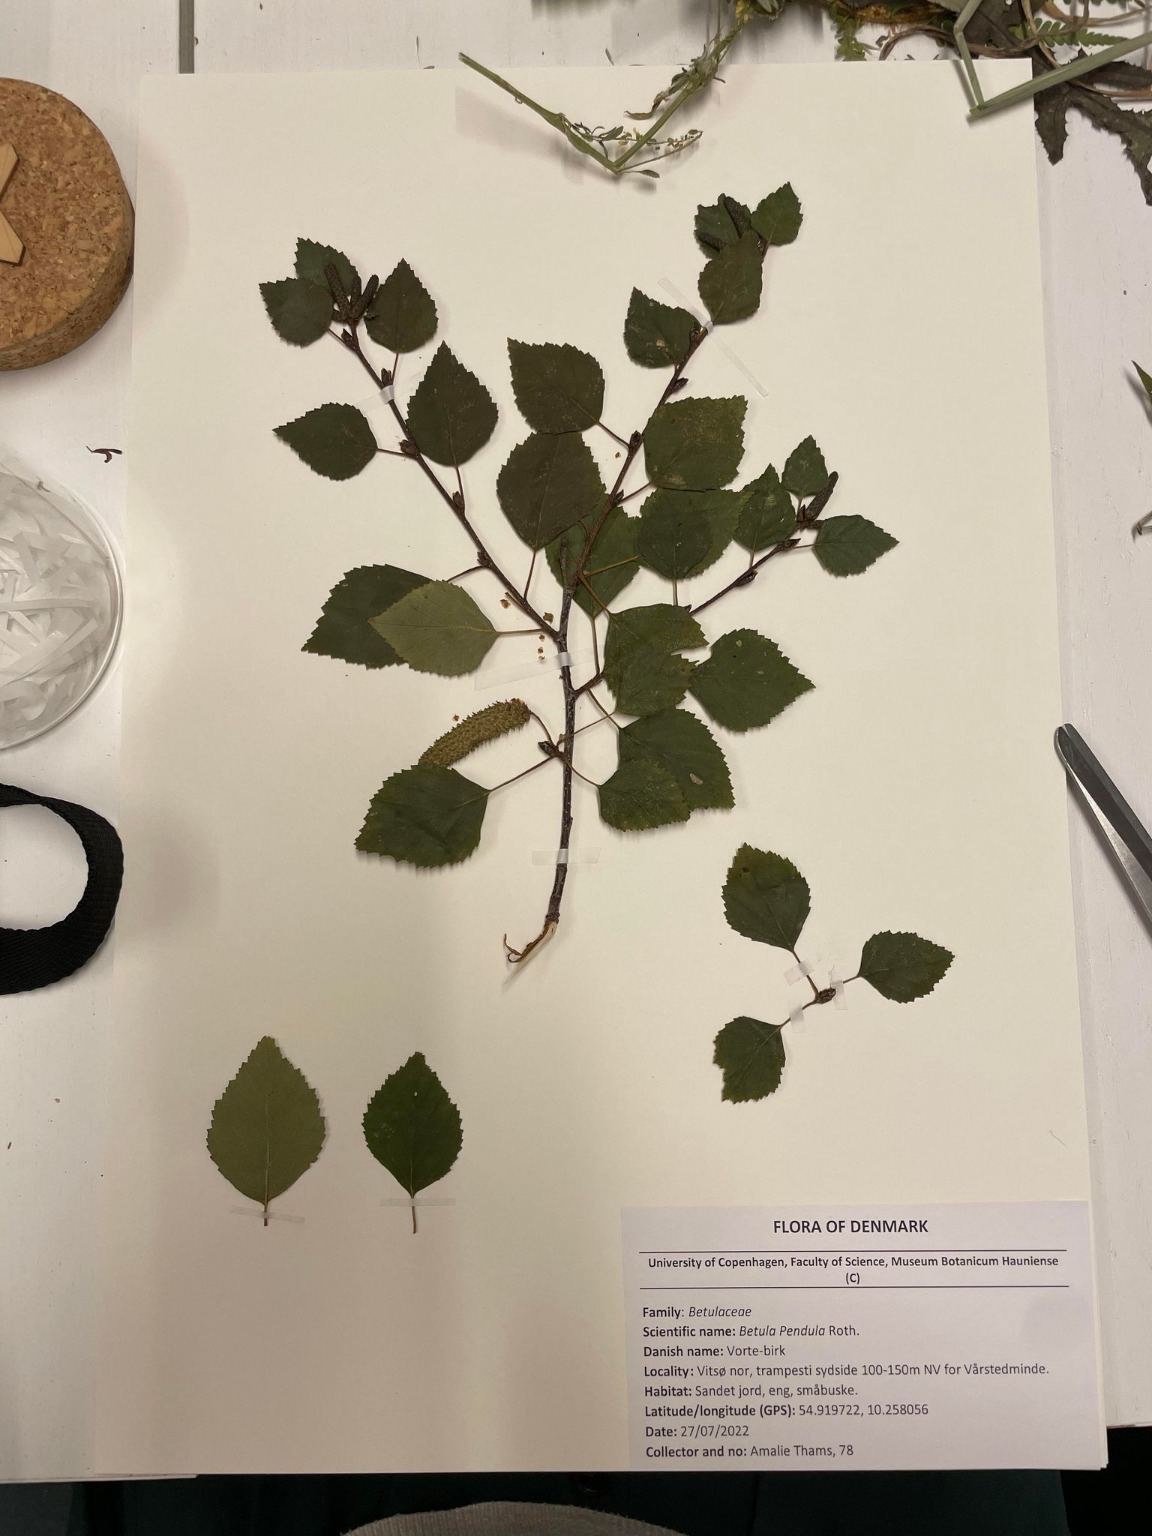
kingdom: Plantae
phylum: Tracheophyta
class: Magnoliopsida
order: Fagales
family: Betulaceae
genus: Betula
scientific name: Betula pendula
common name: Vorte-birk
